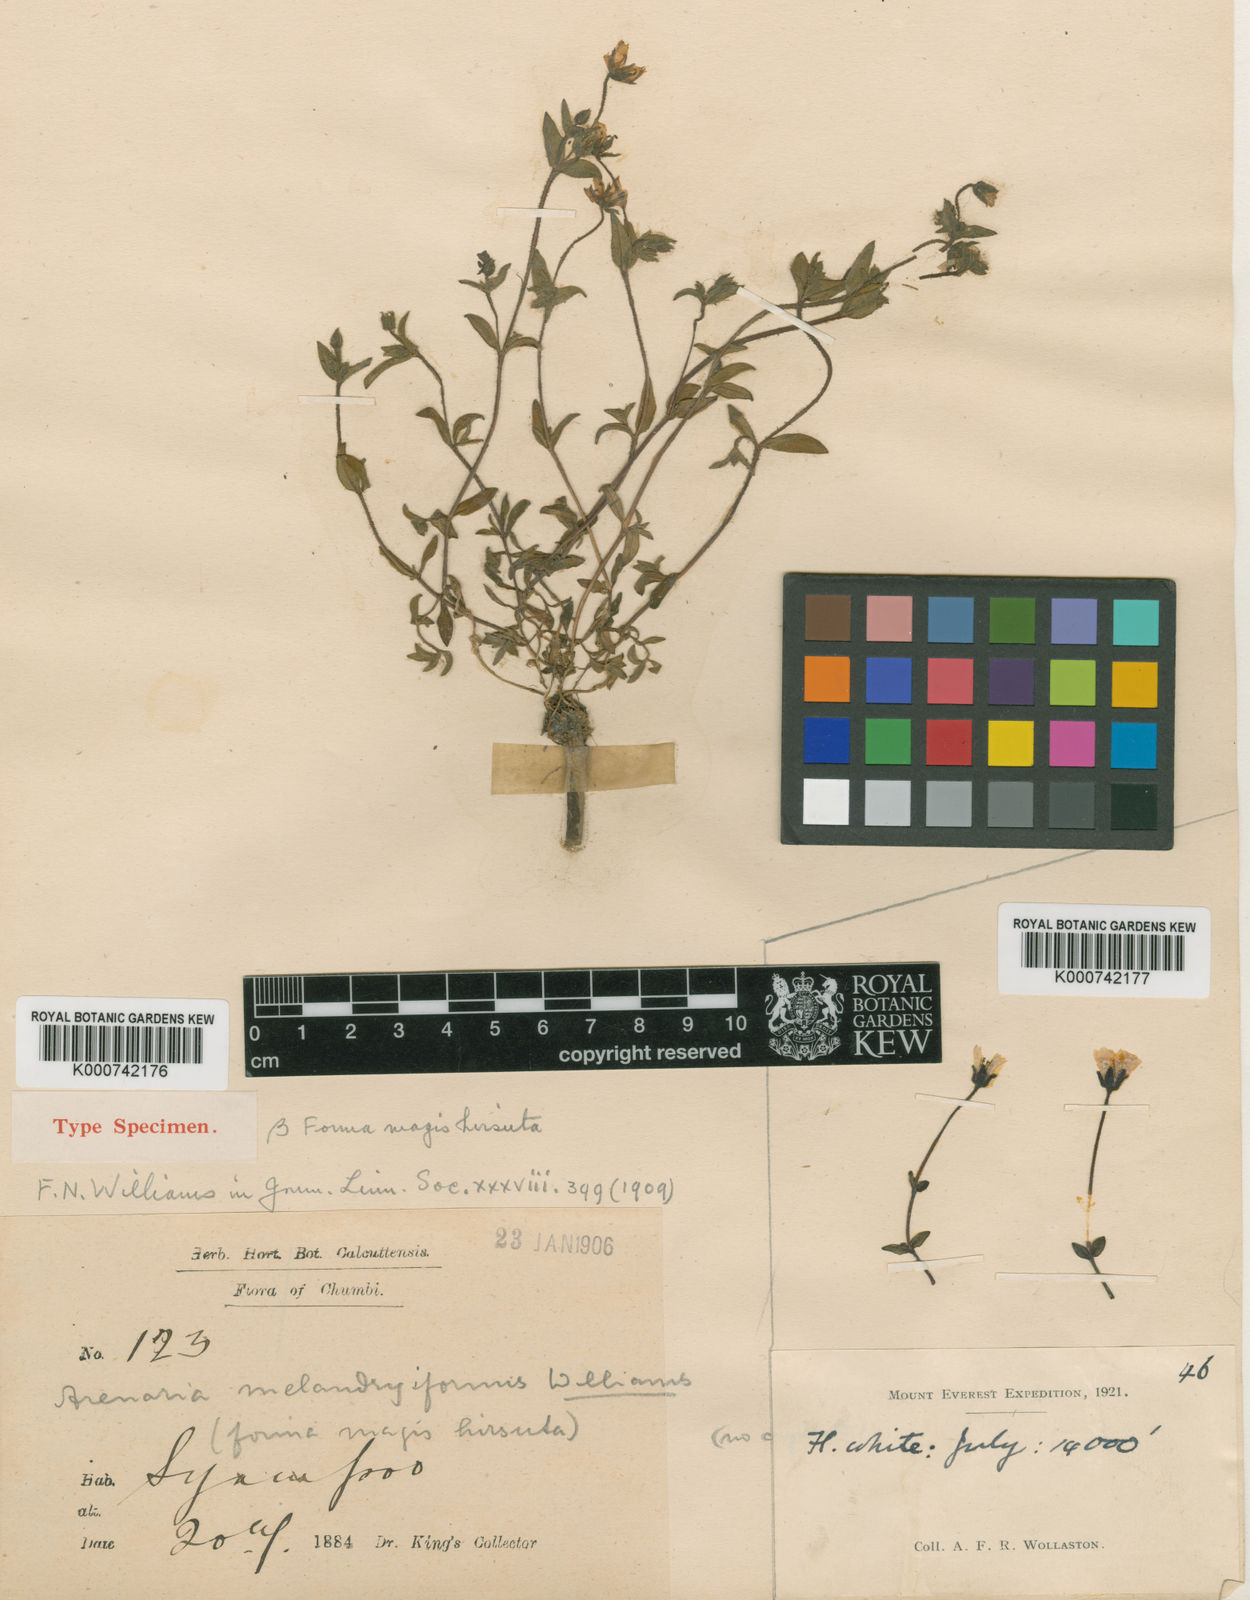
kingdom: Plantae
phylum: Tracheophyta
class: Magnoliopsida
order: Caryophyllales
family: Caryophyllaceae
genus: Shivparvatia
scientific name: Shivparvatia melandryiformis
